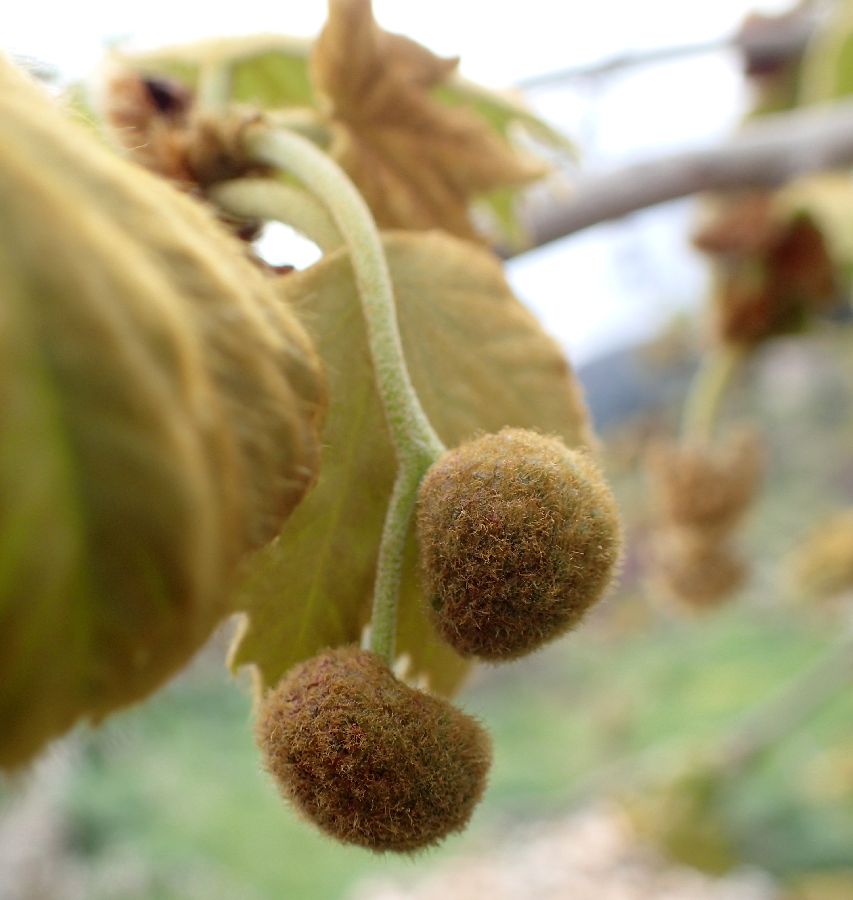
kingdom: Plantae
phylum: Tracheophyta
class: Magnoliopsida
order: Proteales
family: Platanaceae
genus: Platanus
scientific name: Platanus orientalis
